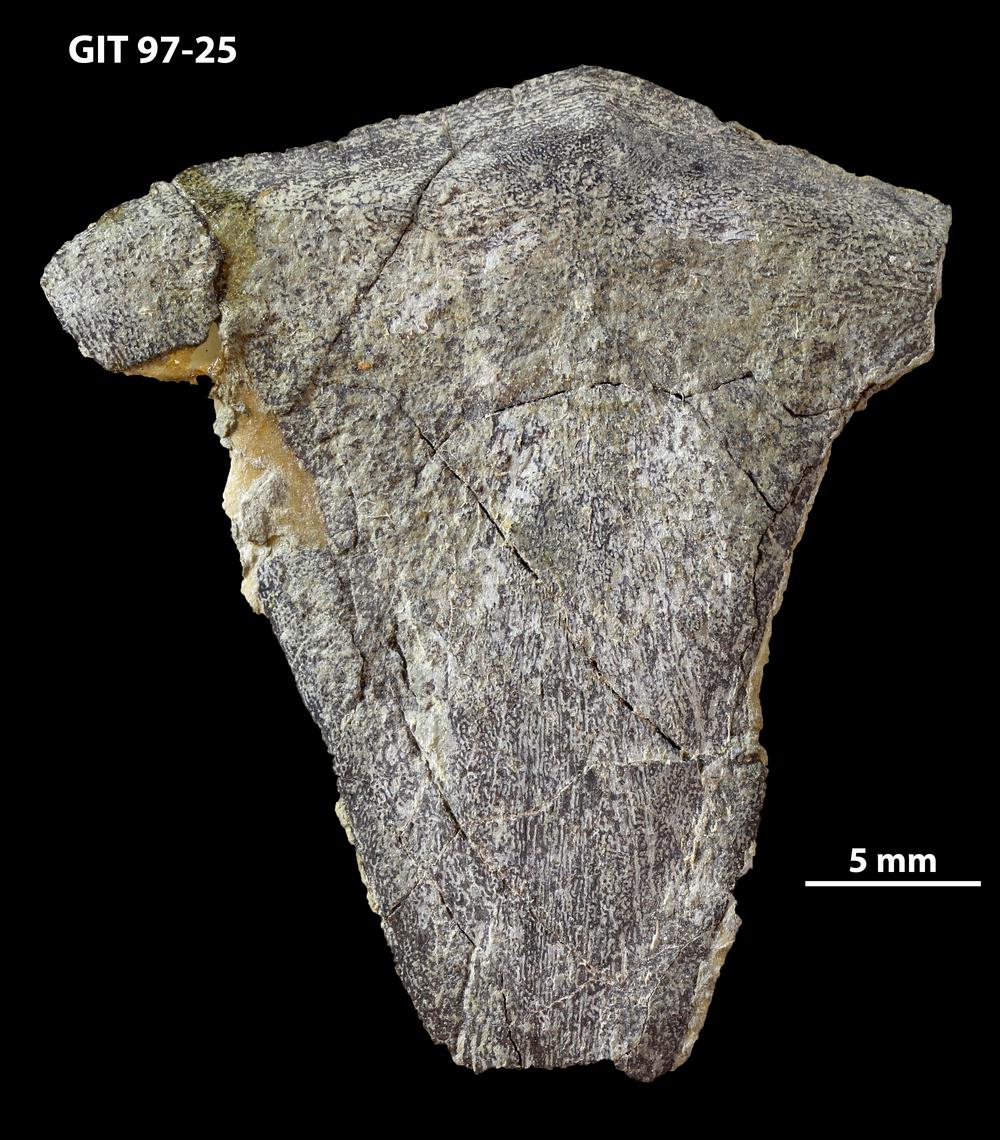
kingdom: Animalia
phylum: Chordata
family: Holonematidae
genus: Holonema
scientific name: Holonema
